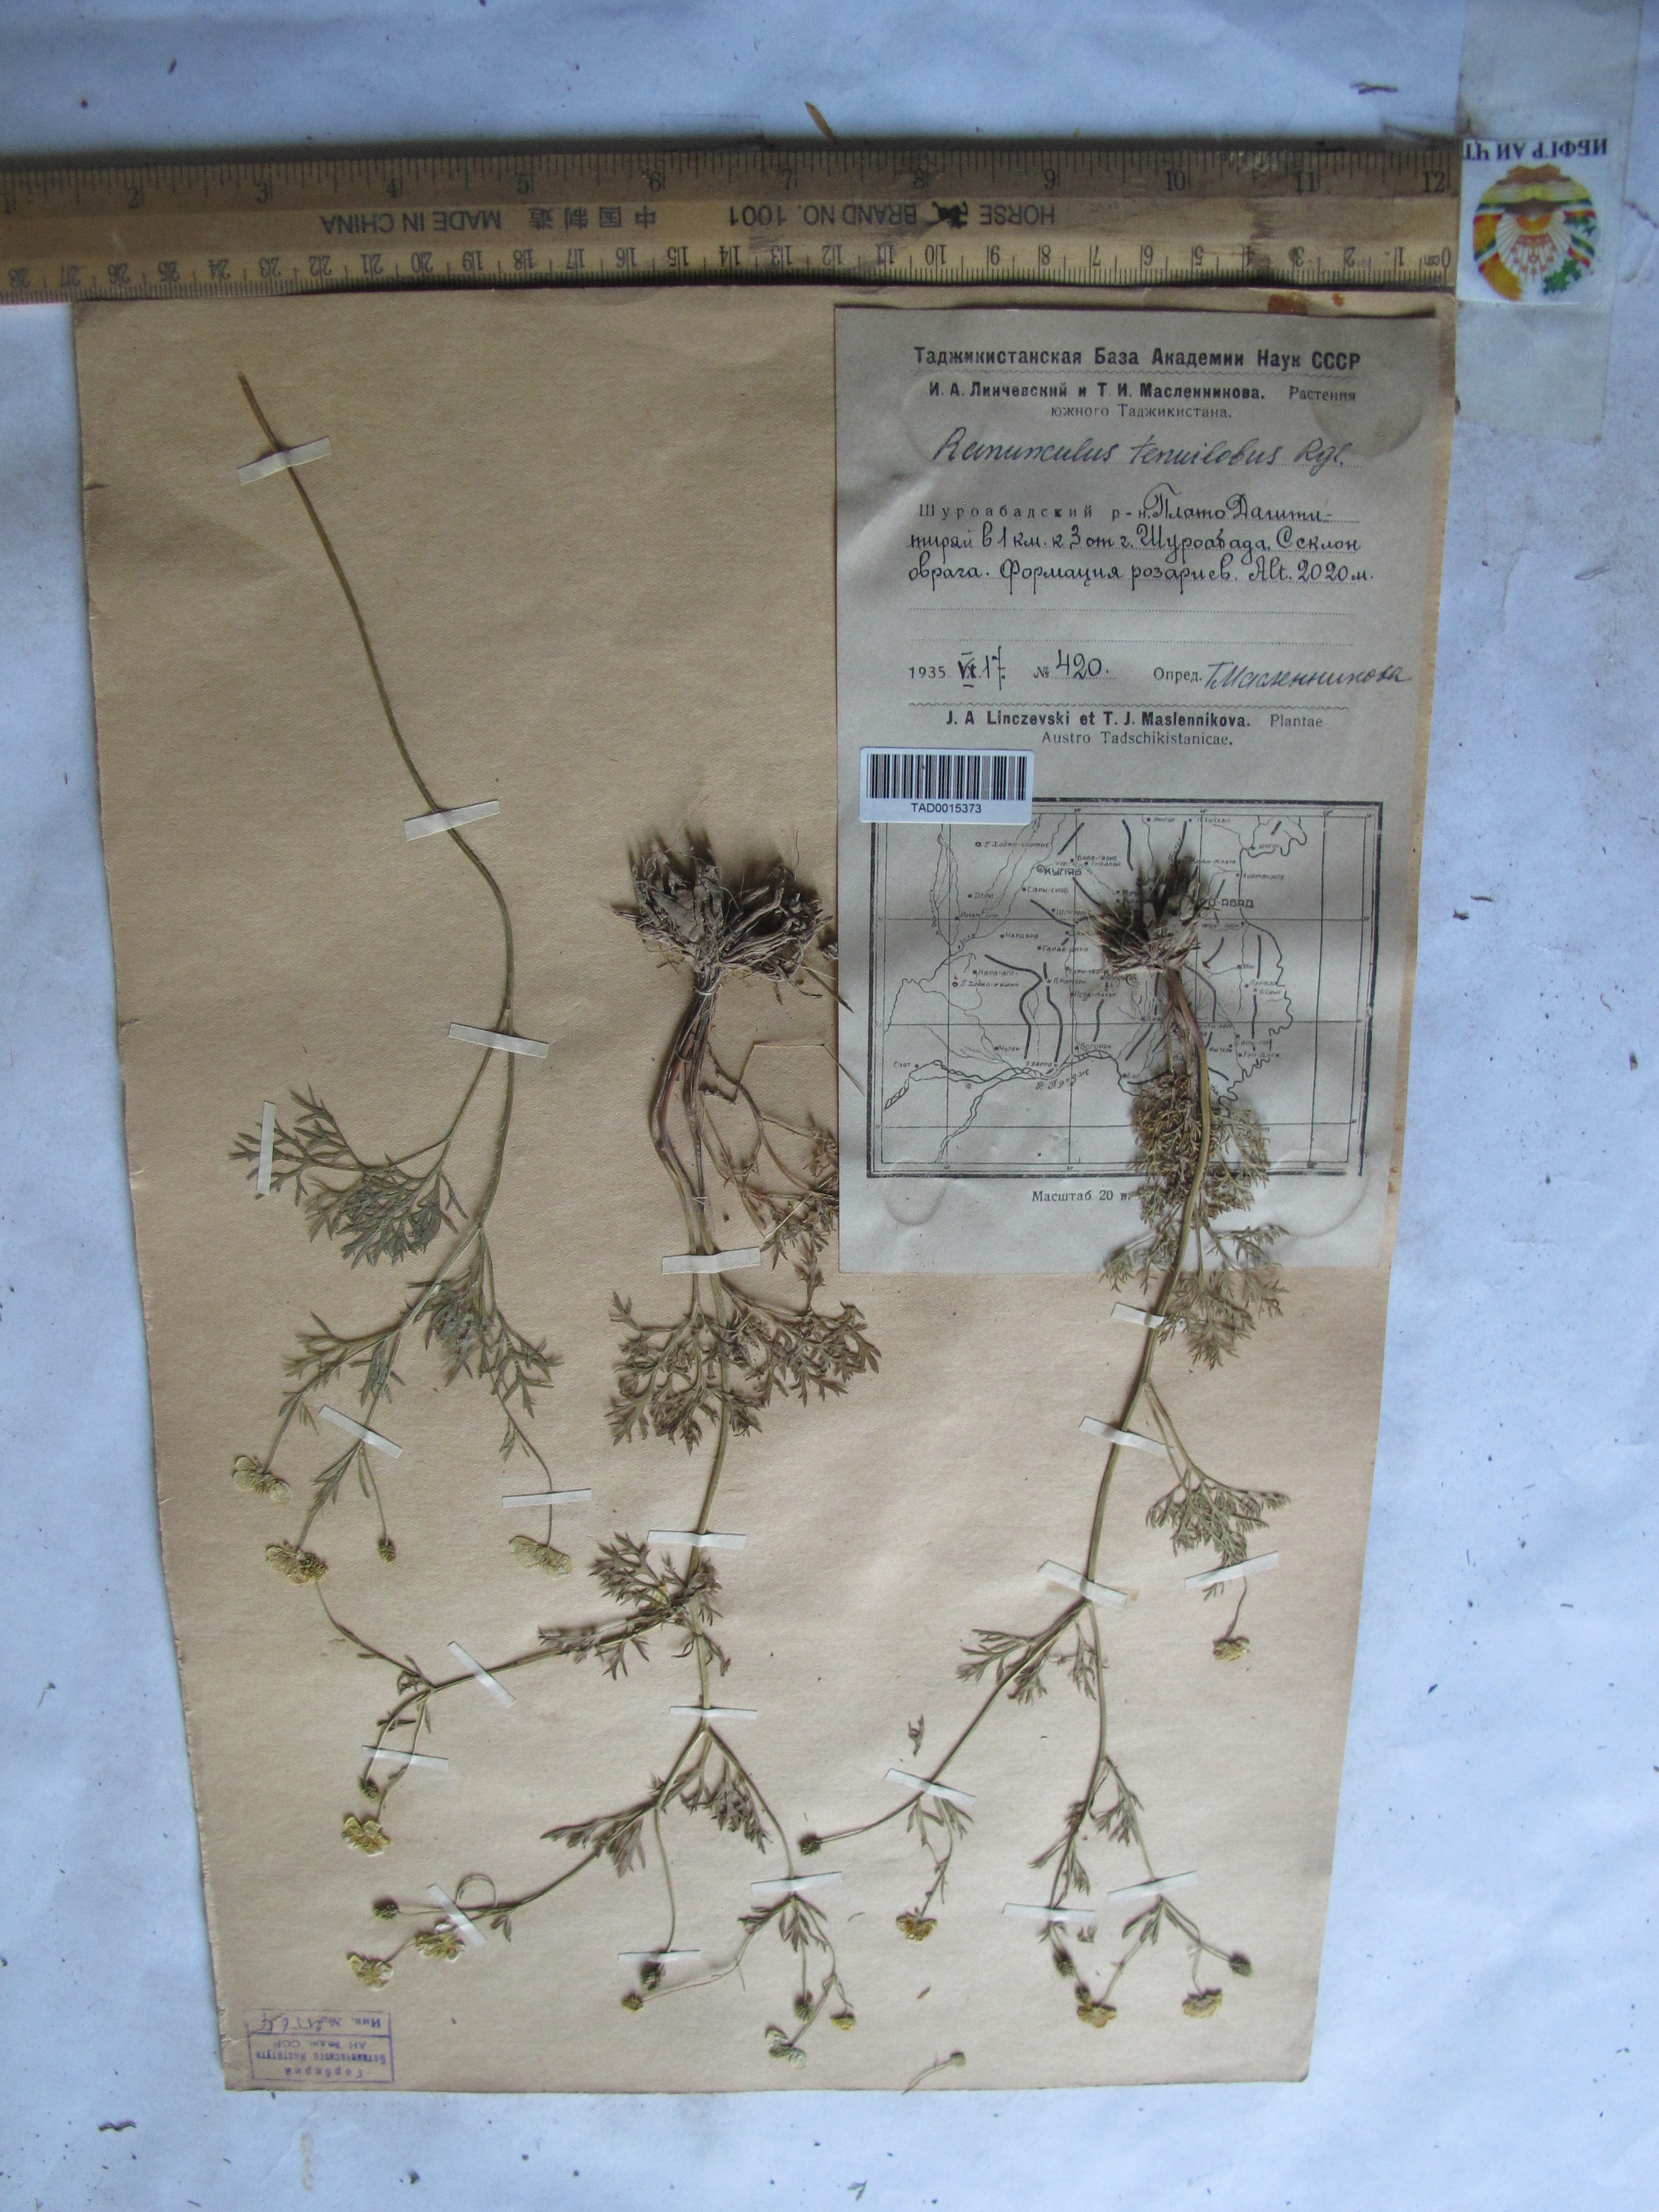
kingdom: Plantae
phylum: Tracheophyta
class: Magnoliopsida
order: Ranunculales
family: Ranunculaceae
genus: Ranunculus
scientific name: Ranunculus tenuilobus
